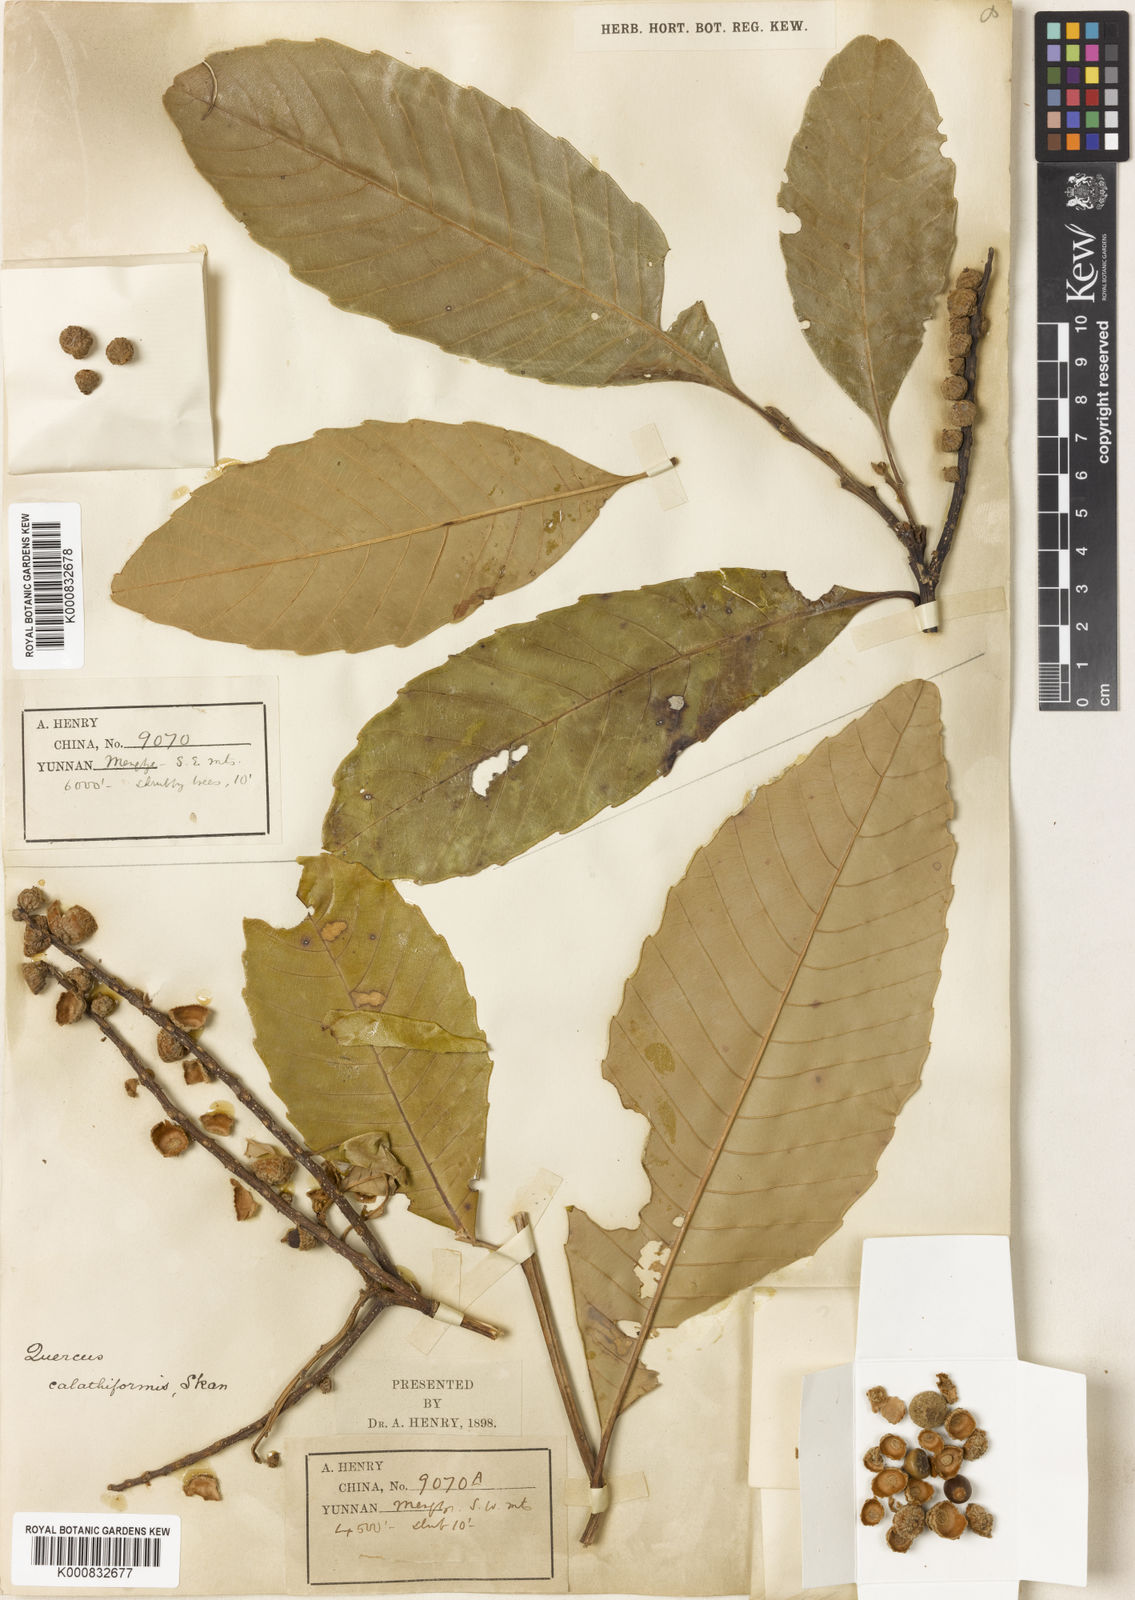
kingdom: Plantae
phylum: Tracheophyta
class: Magnoliopsida
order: Fagales
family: Fagaceae
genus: Castanopsis
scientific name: Castanopsis calathiformis
